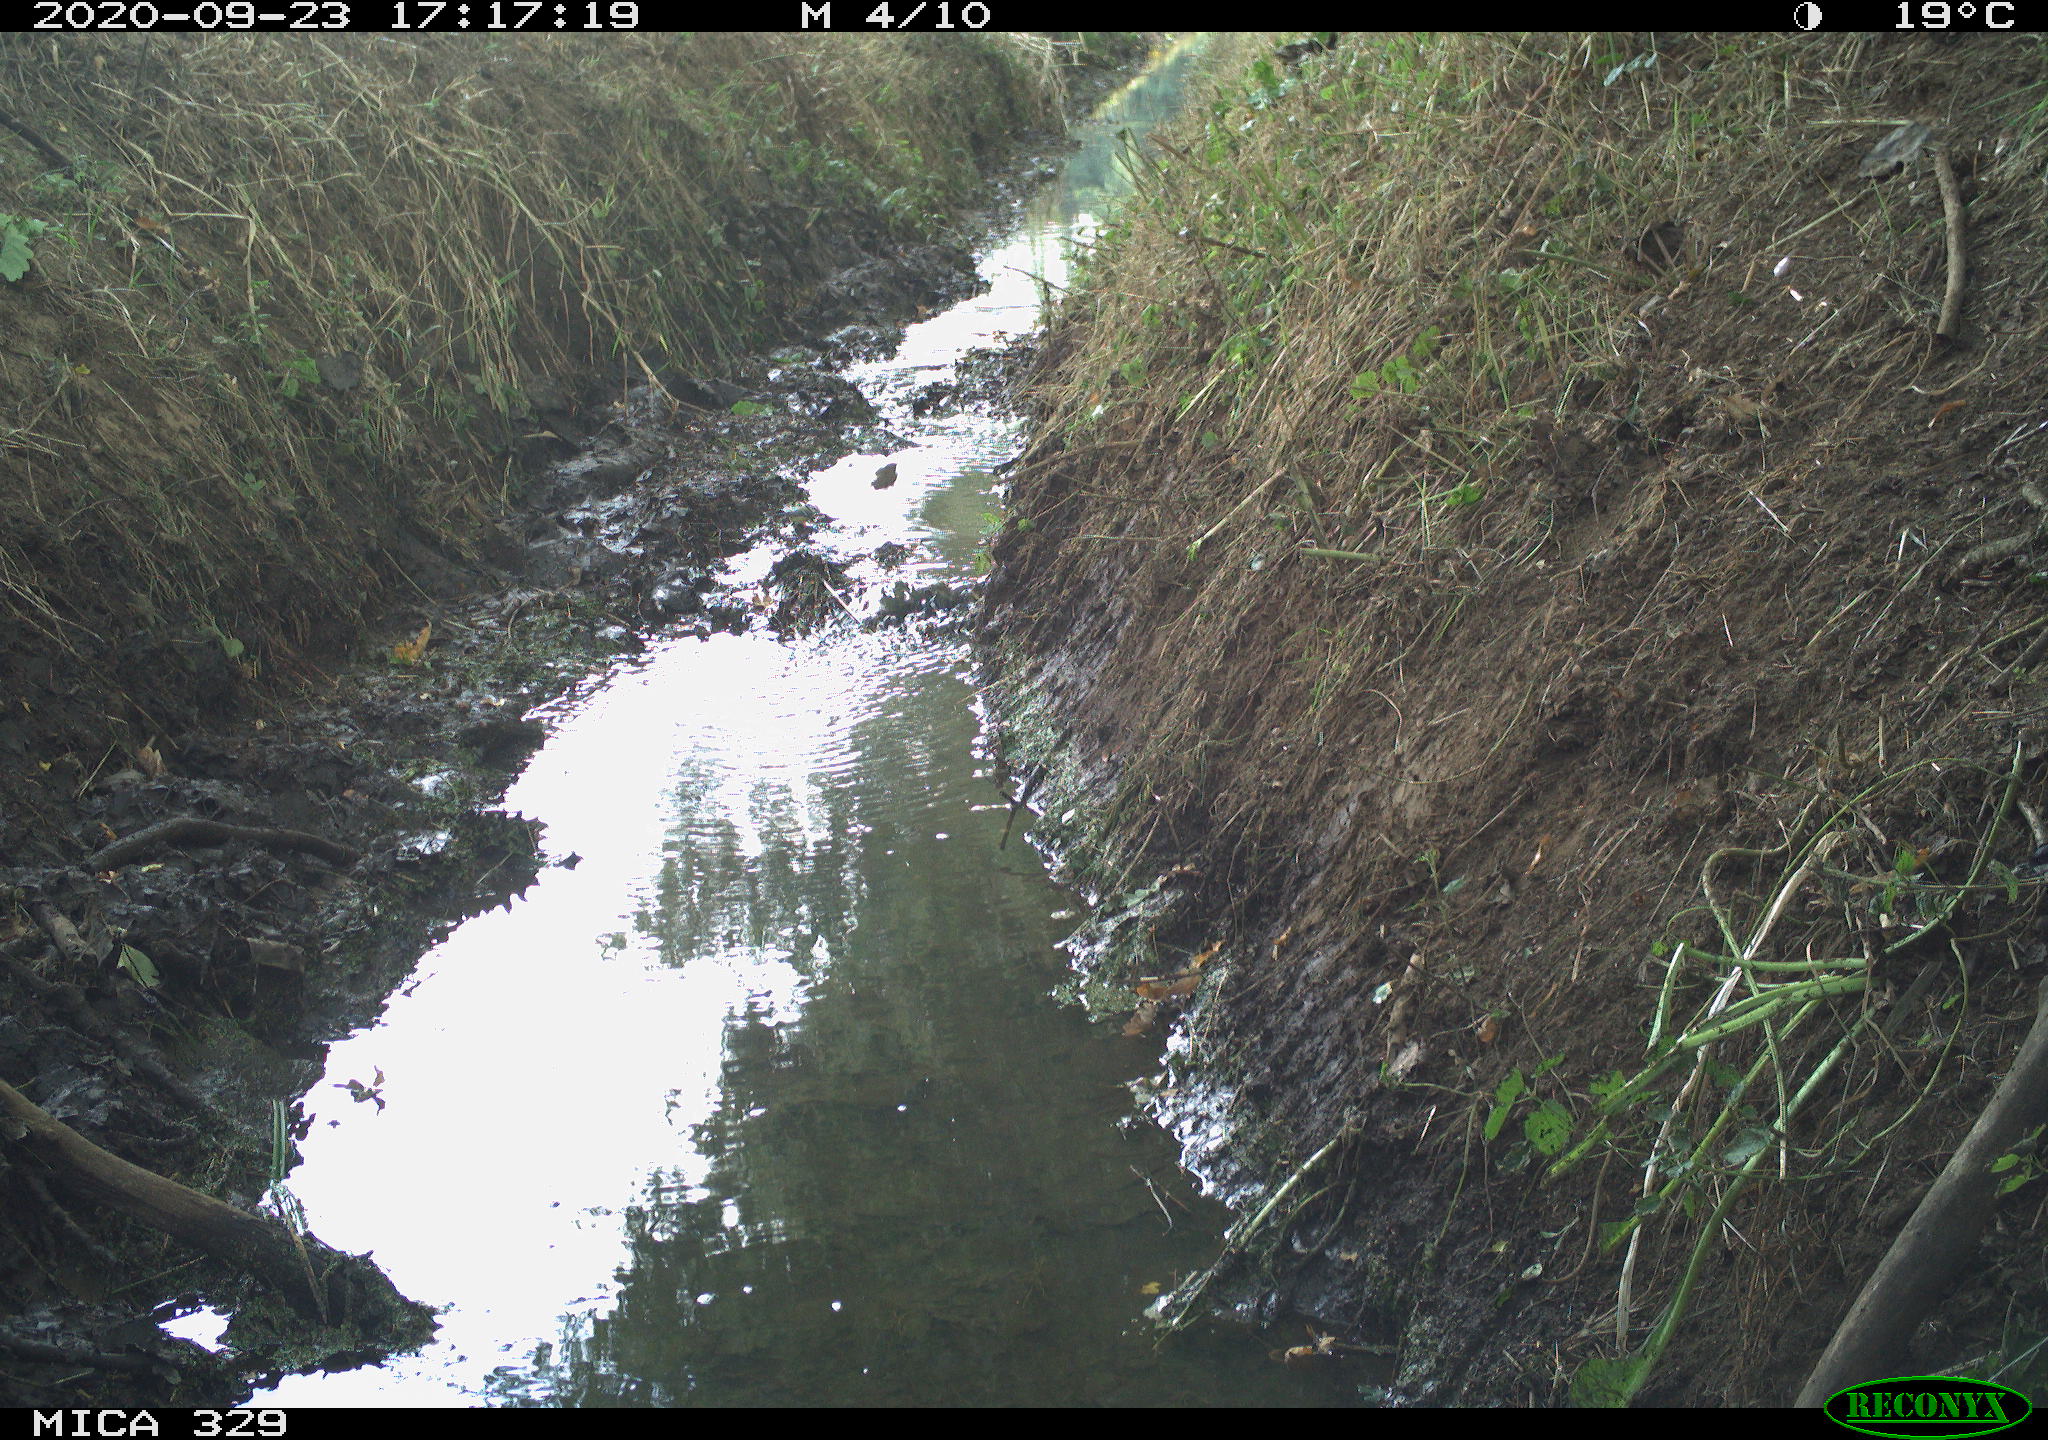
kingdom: Animalia
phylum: Chordata
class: Aves
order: Passeriformes
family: Paridae
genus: Parus
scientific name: Parus major
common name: Great tit
